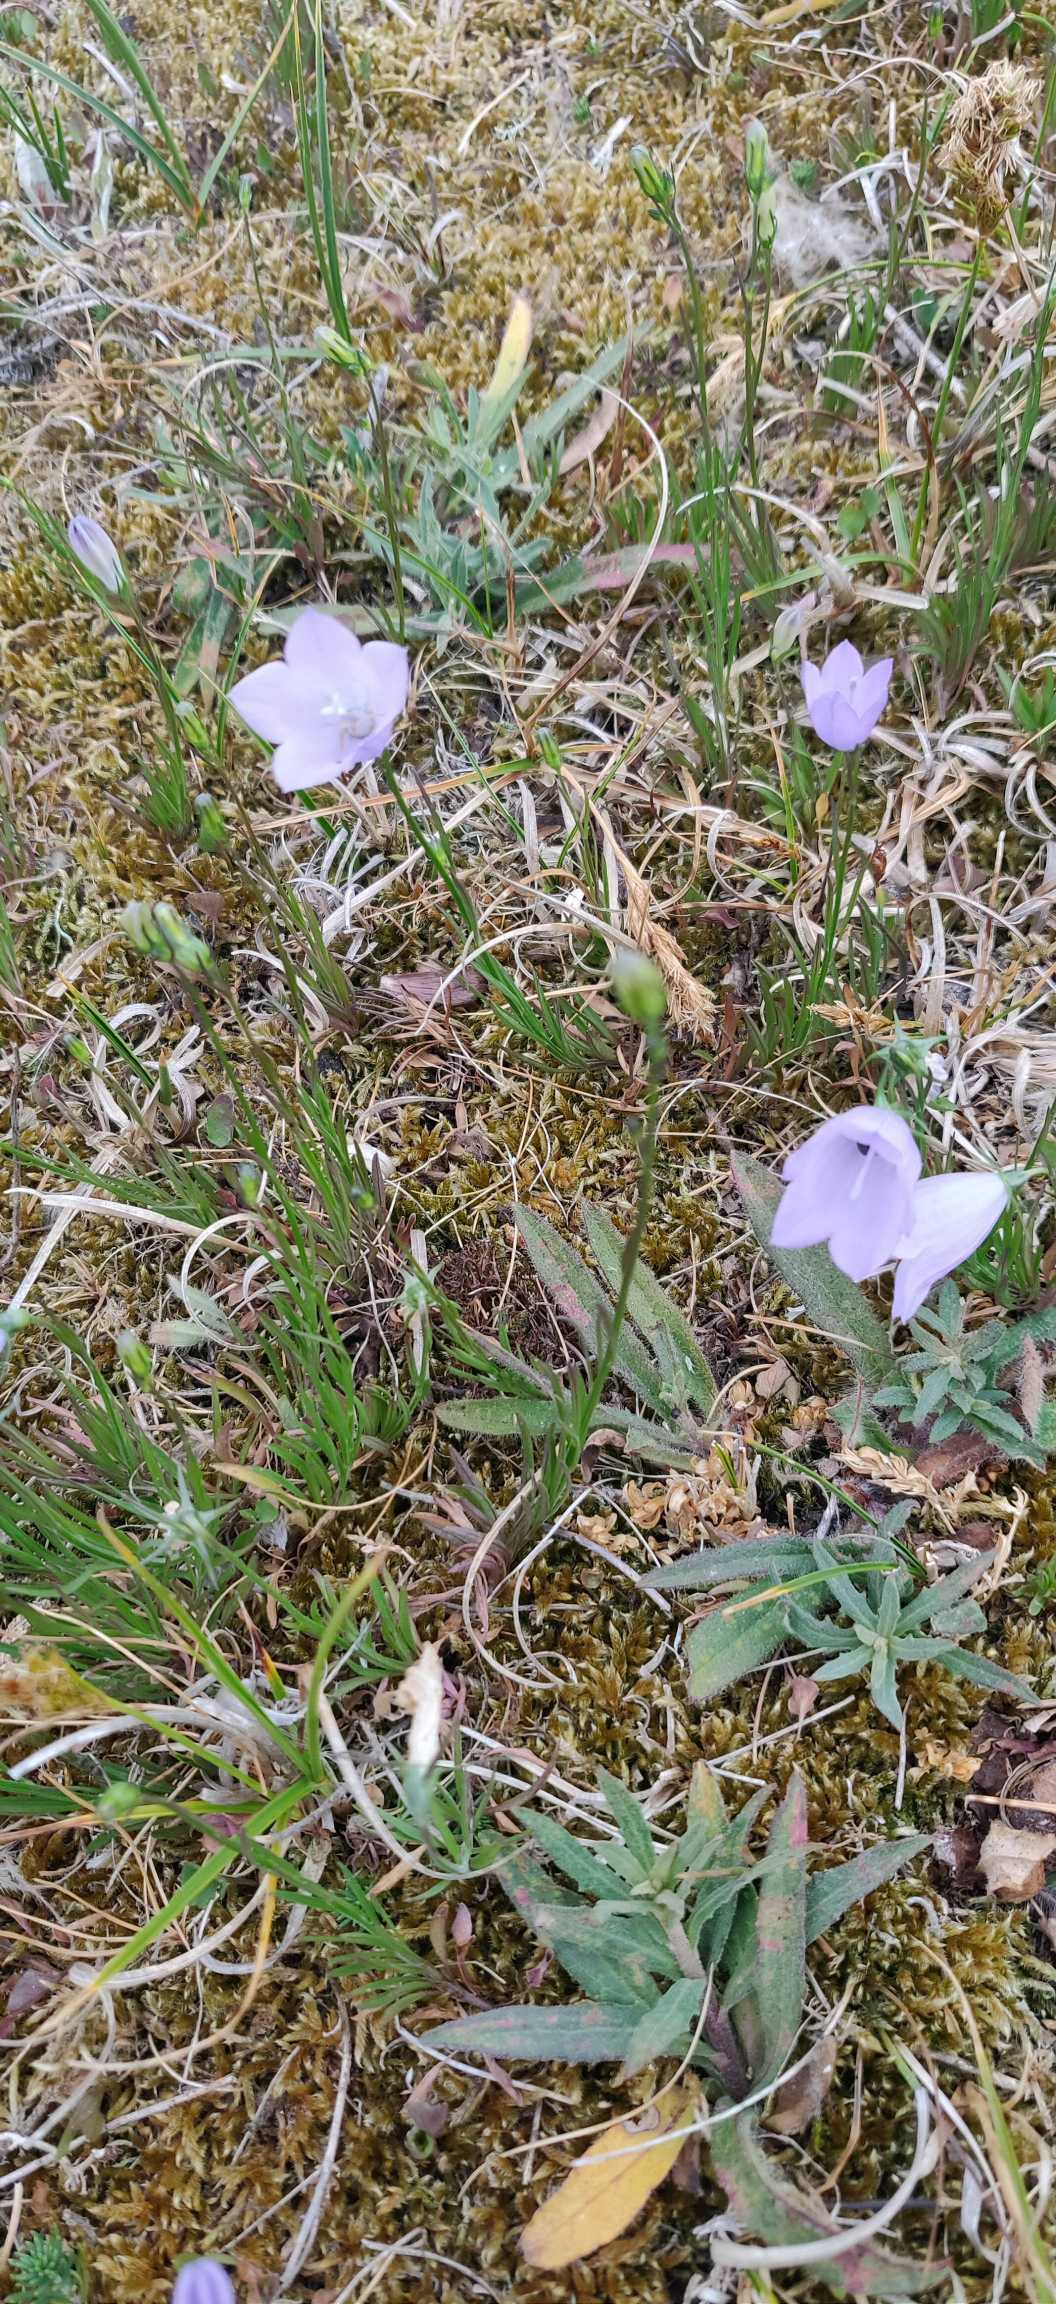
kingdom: Plantae
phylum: Tracheophyta
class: Magnoliopsida
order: Asterales
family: Campanulaceae
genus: Campanula
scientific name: Campanula rotundifolia
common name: Liden klokke
